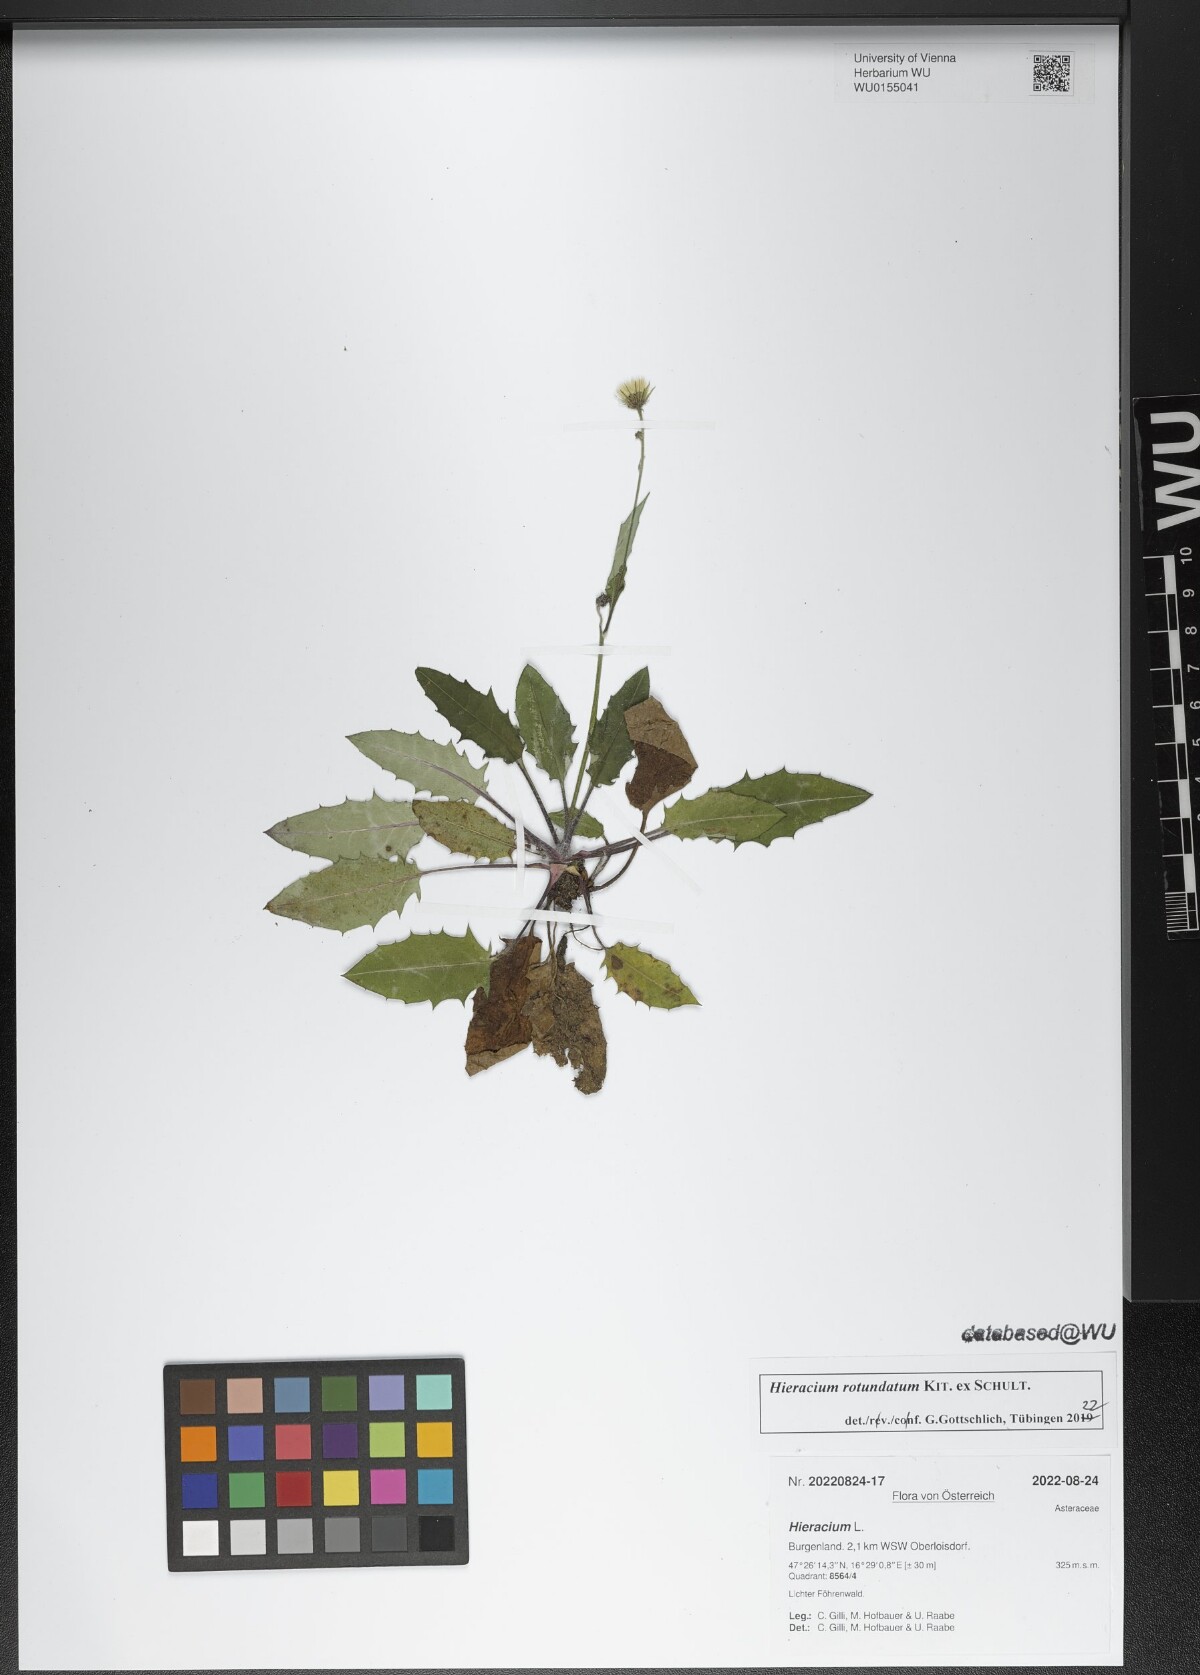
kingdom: Plantae
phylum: Tracheophyta
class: Magnoliopsida
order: Asterales
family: Asteraceae
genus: Hieracium
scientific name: Hieracium rotundatum
